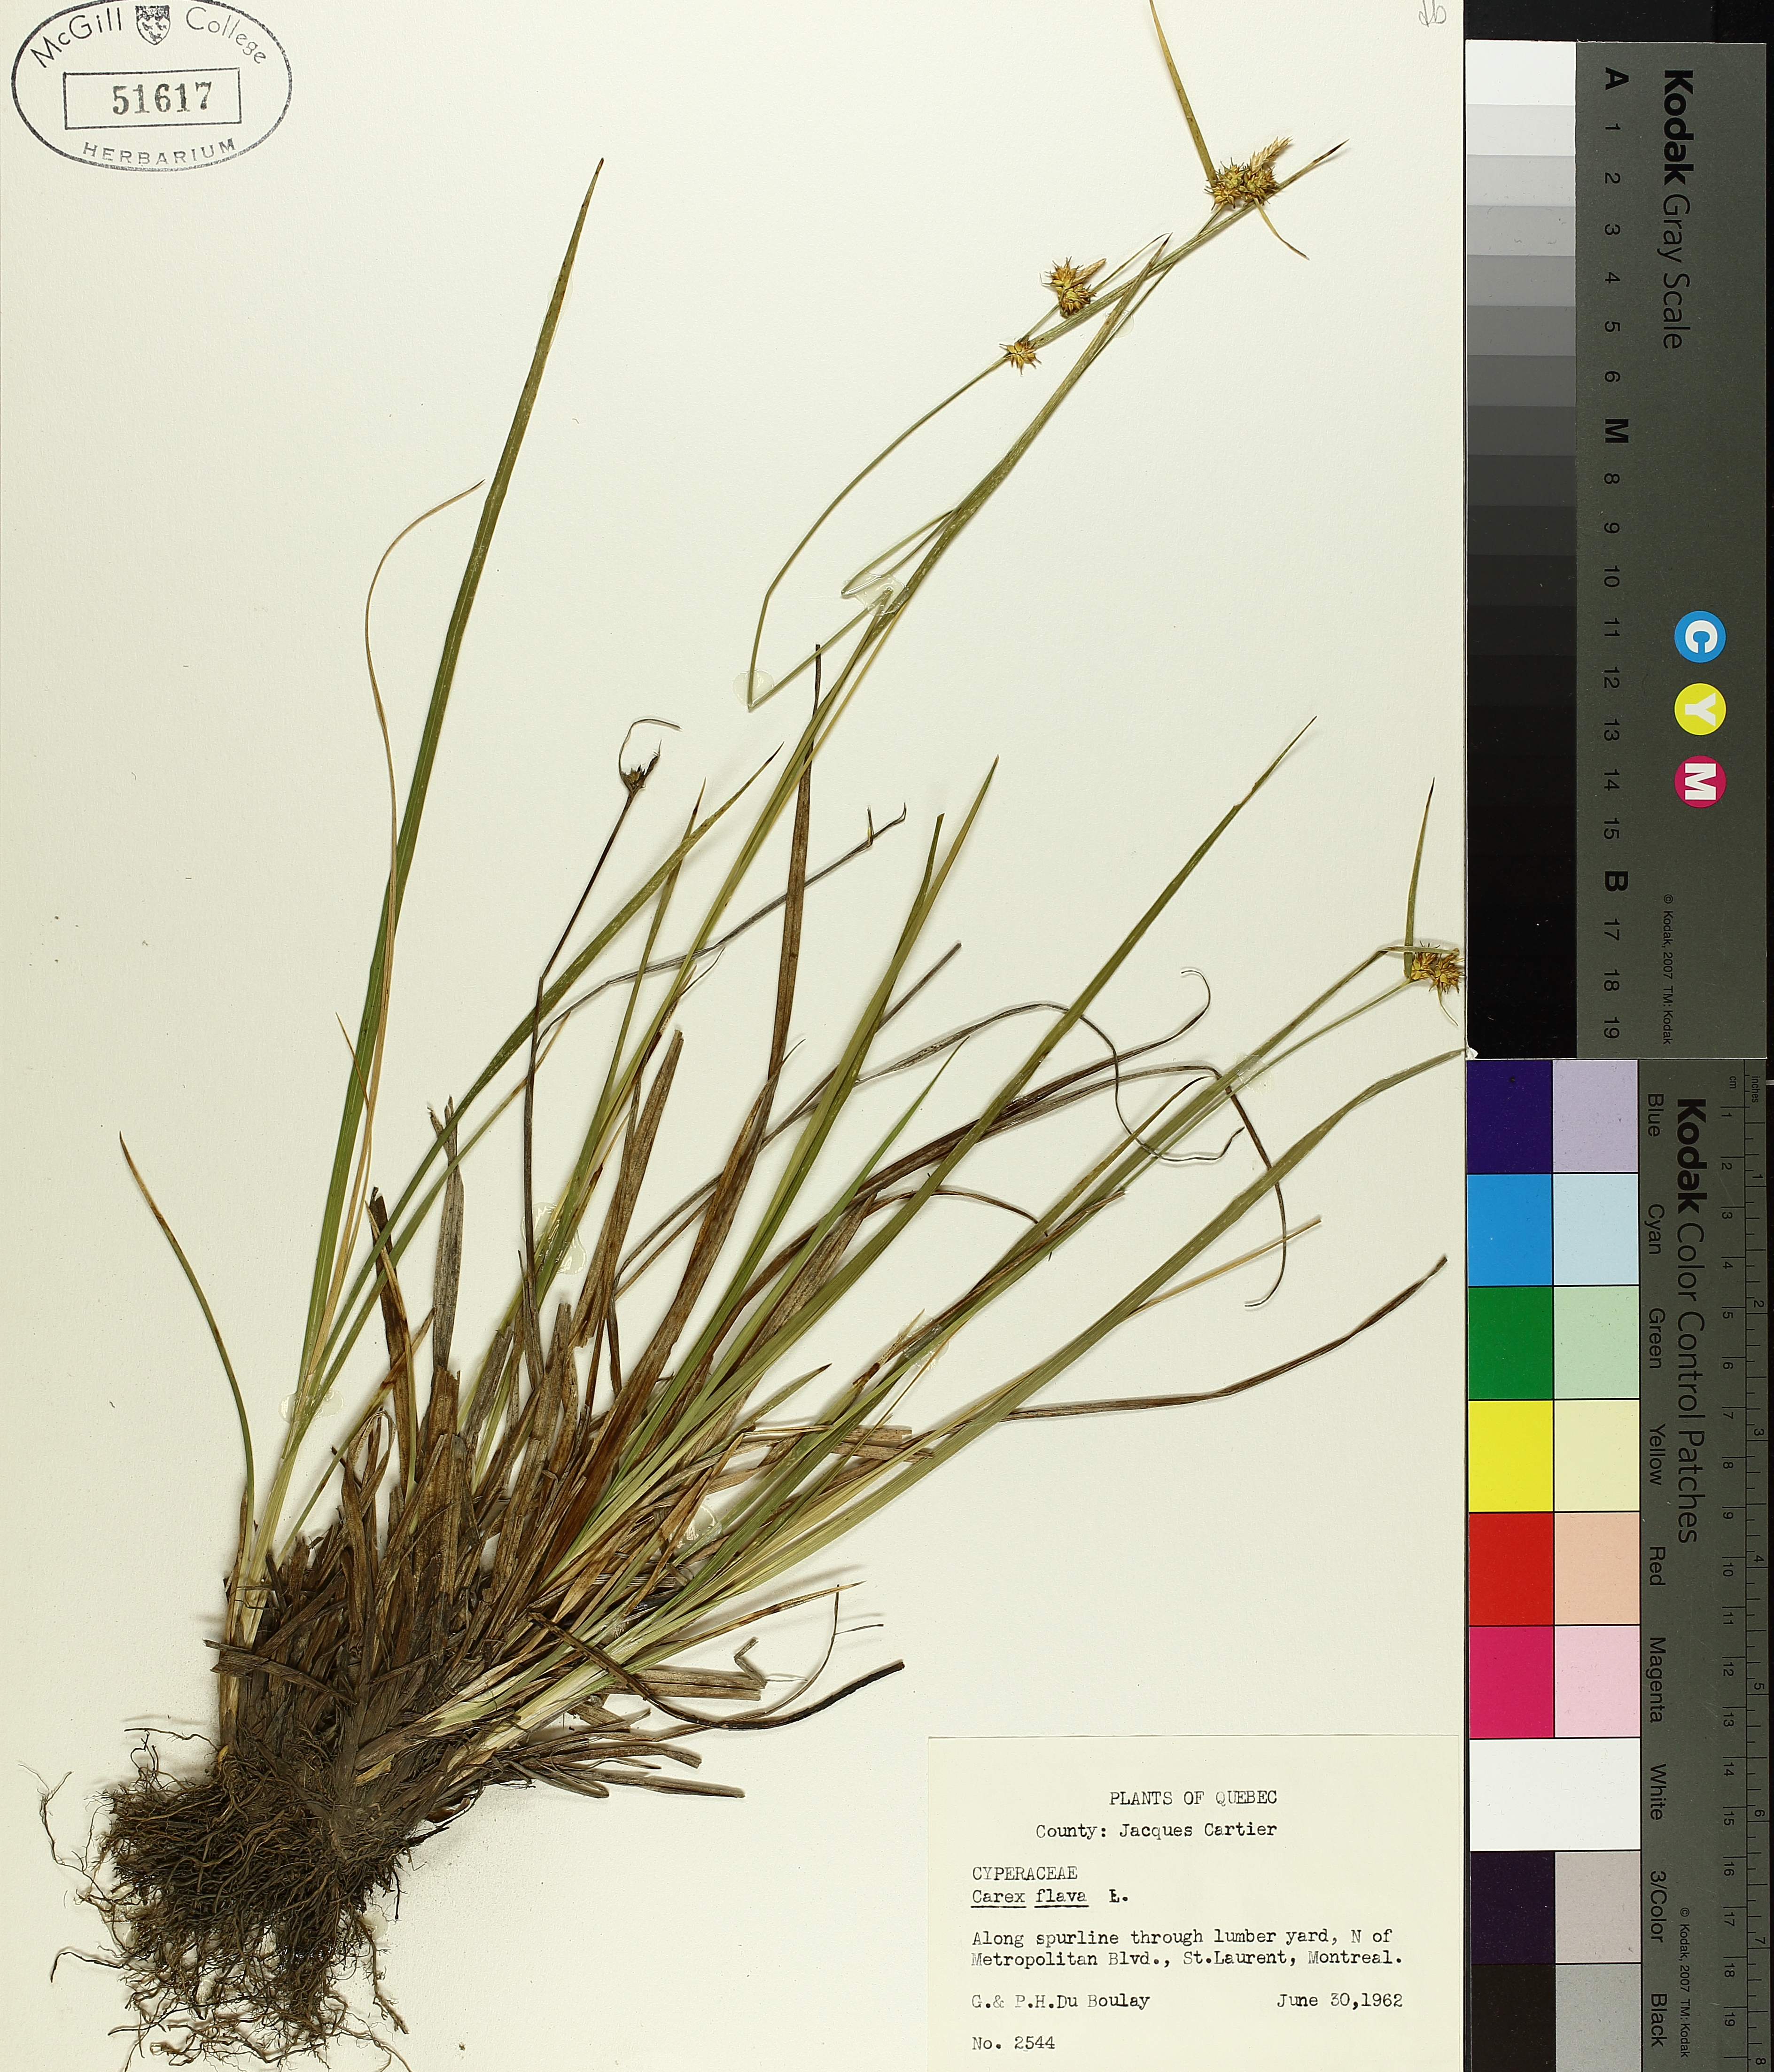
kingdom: Plantae
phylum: Tracheophyta
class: Liliopsida
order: Poales
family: Cyperaceae
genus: Carex
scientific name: Carex flava
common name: Large yellow-sedge
